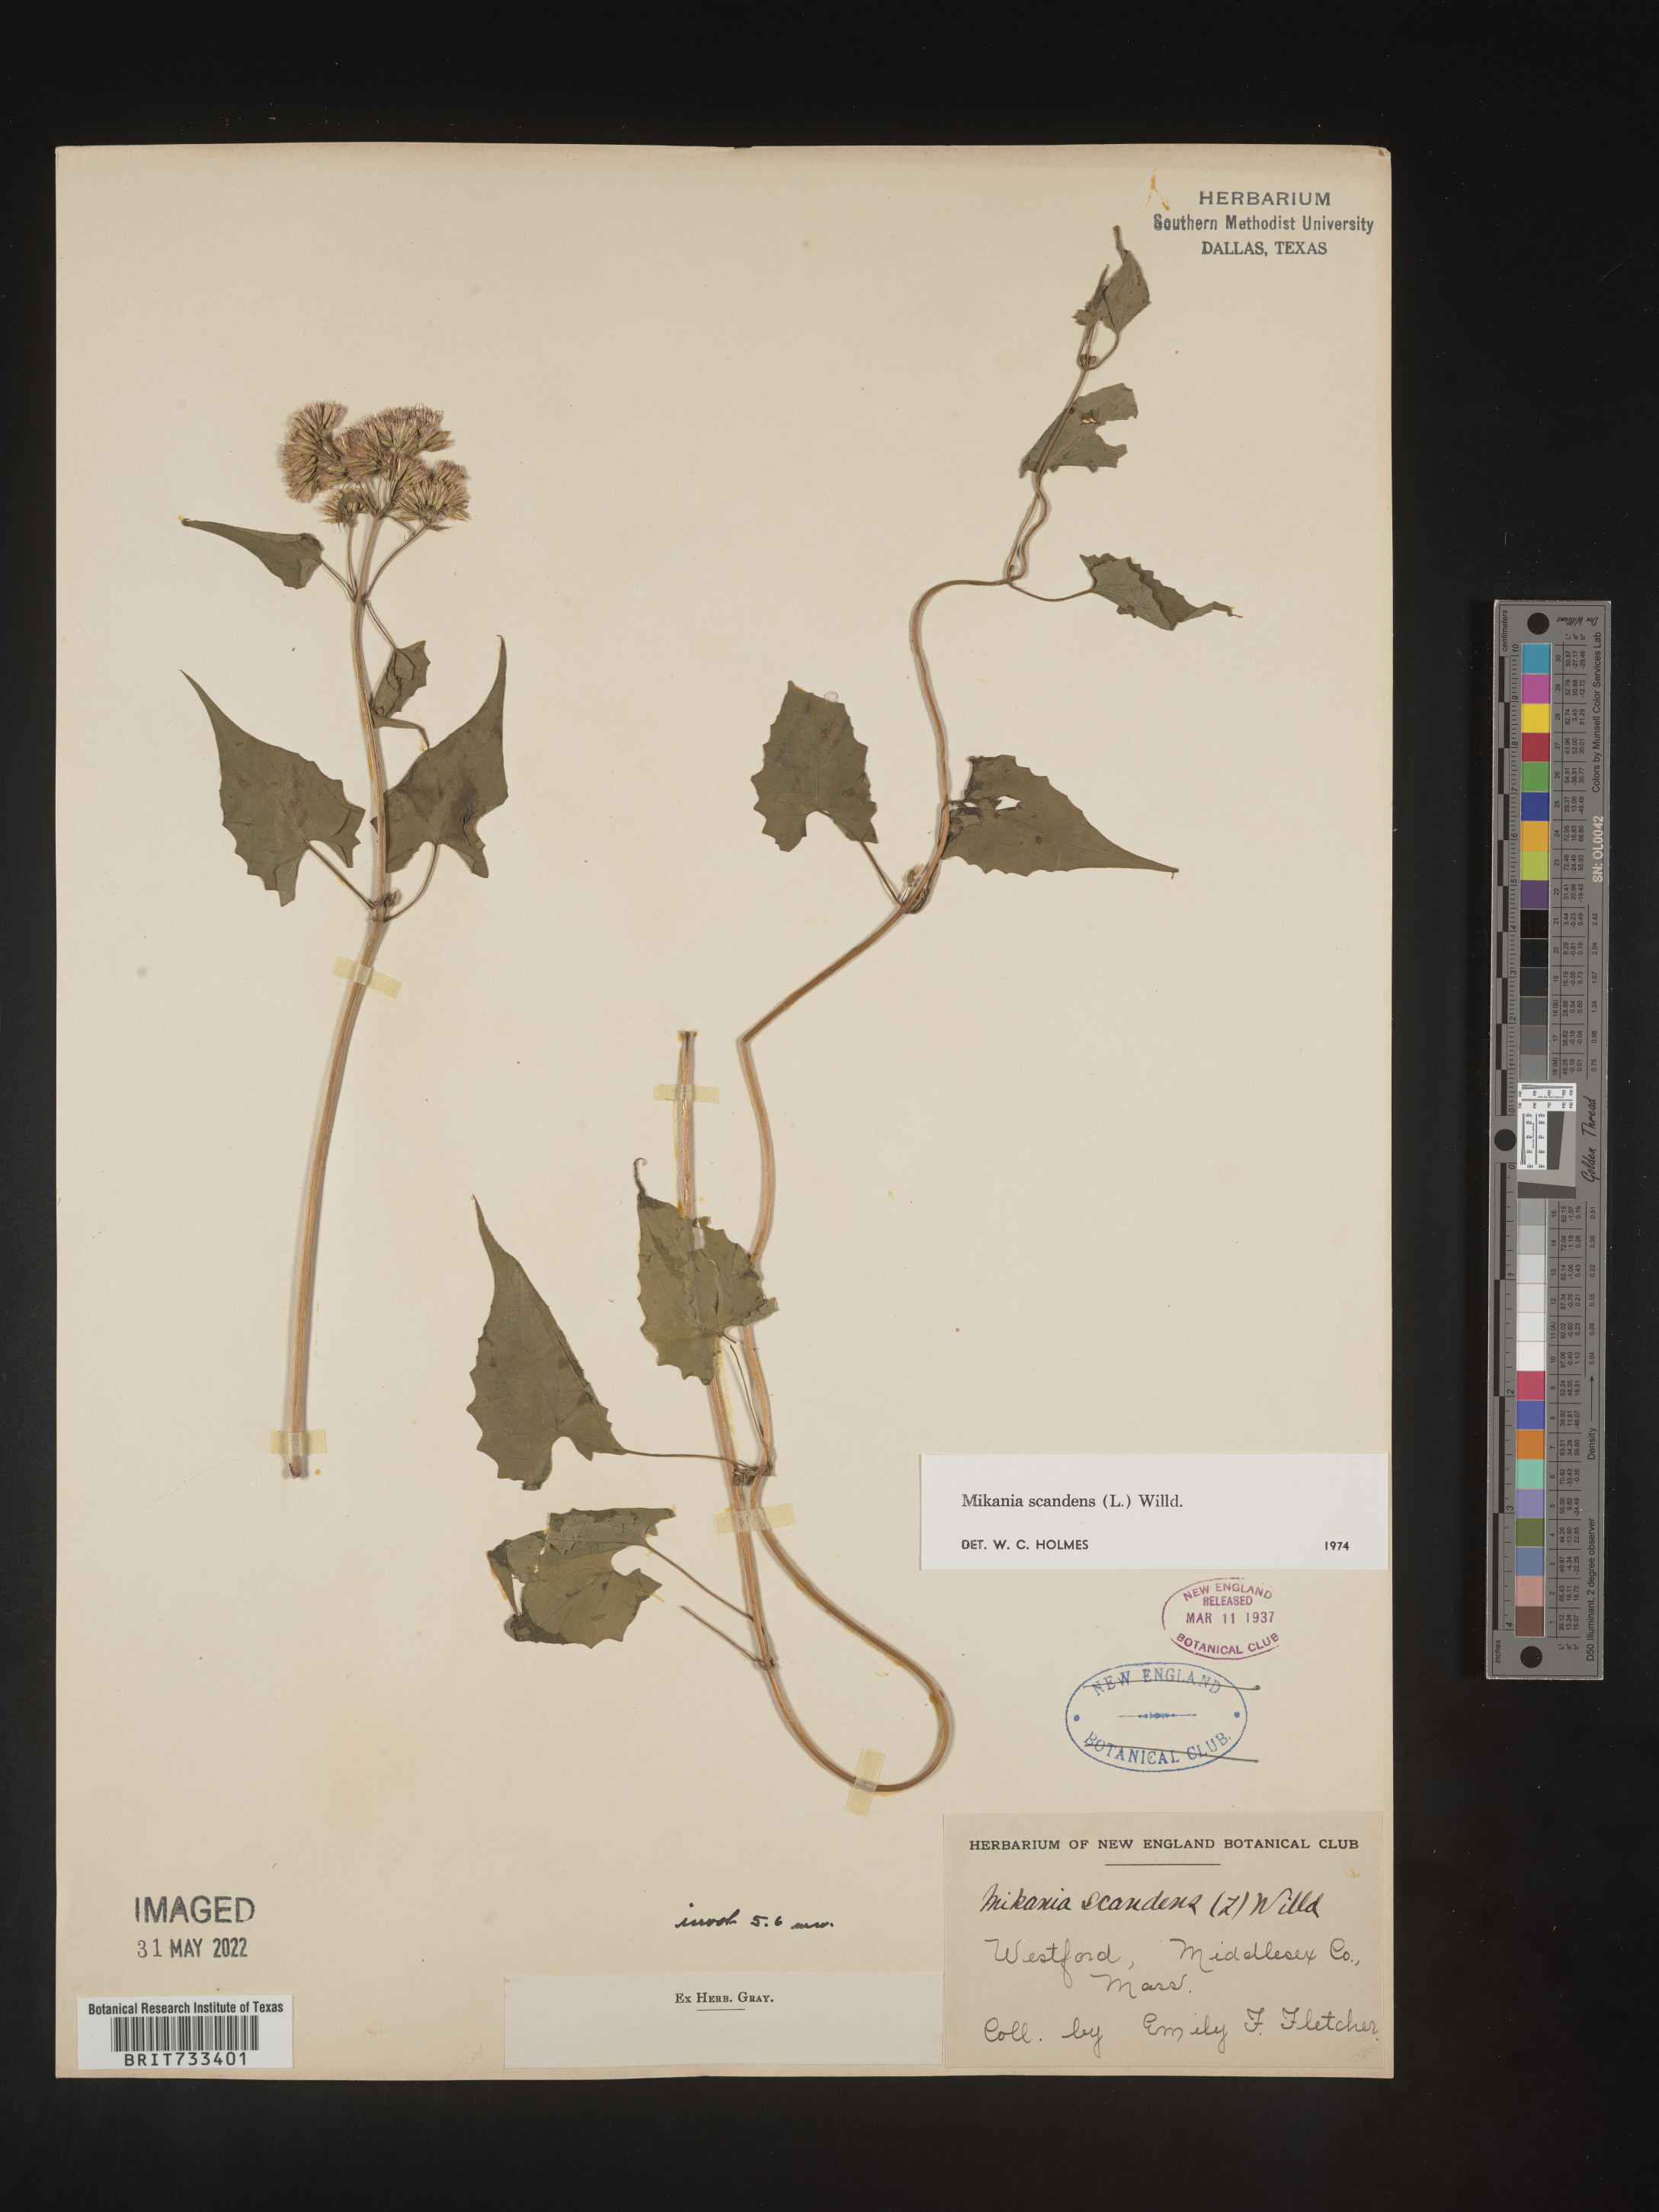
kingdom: Plantae
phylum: Tracheophyta
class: Magnoliopsida
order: Asterales
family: Asteraceae
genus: Mikania
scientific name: Mikania scandens
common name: Climbing hempvine
